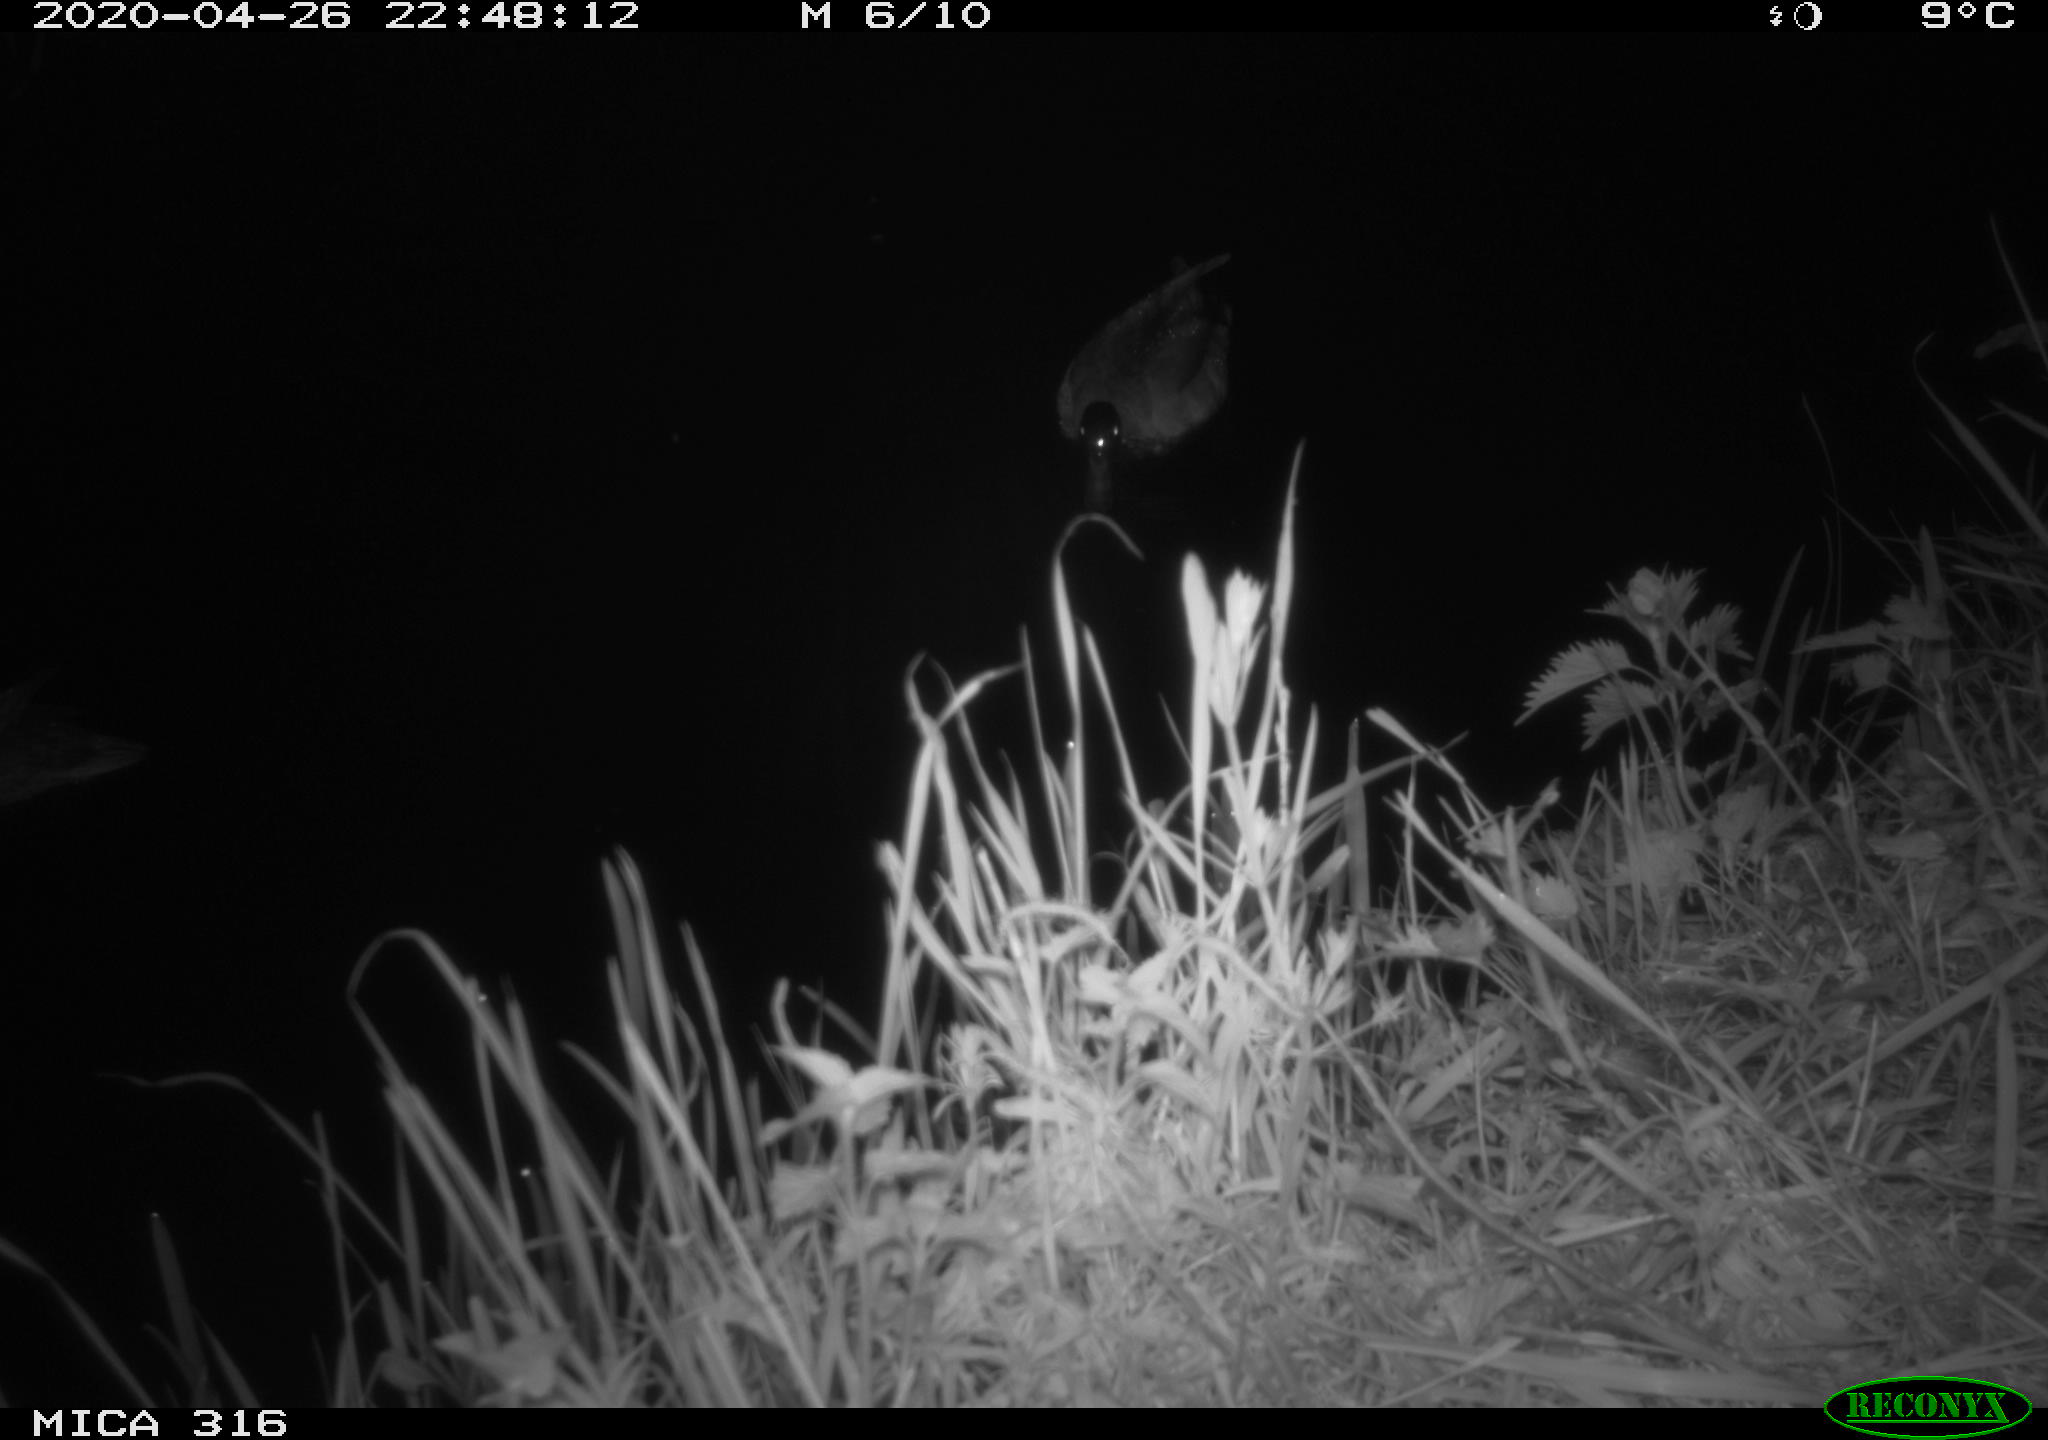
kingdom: Animalia
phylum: Chordata
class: Aves
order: Anseriformes
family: Anatidae
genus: Anas
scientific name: Anas platyrhynchos
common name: Mallard
